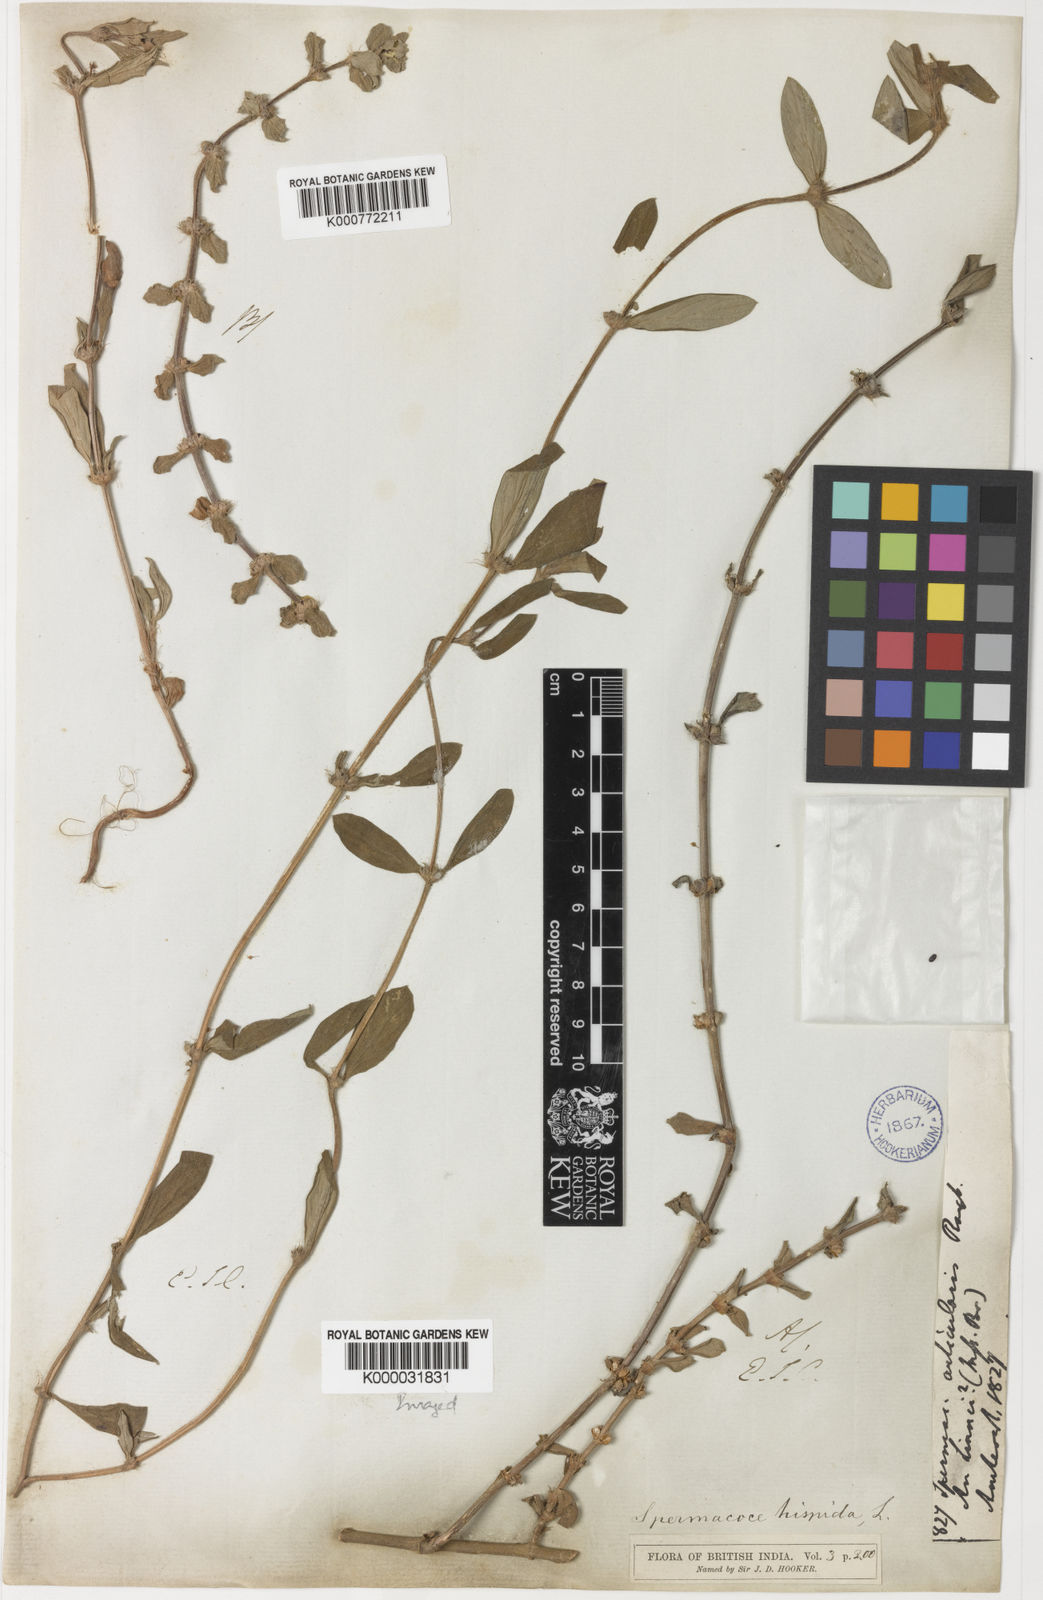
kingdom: Plantae
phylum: Tracheophyta
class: Magnoliopsida
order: Gentianales
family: Rubiaceae
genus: Spermacoce
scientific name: Spermacoce articularis
